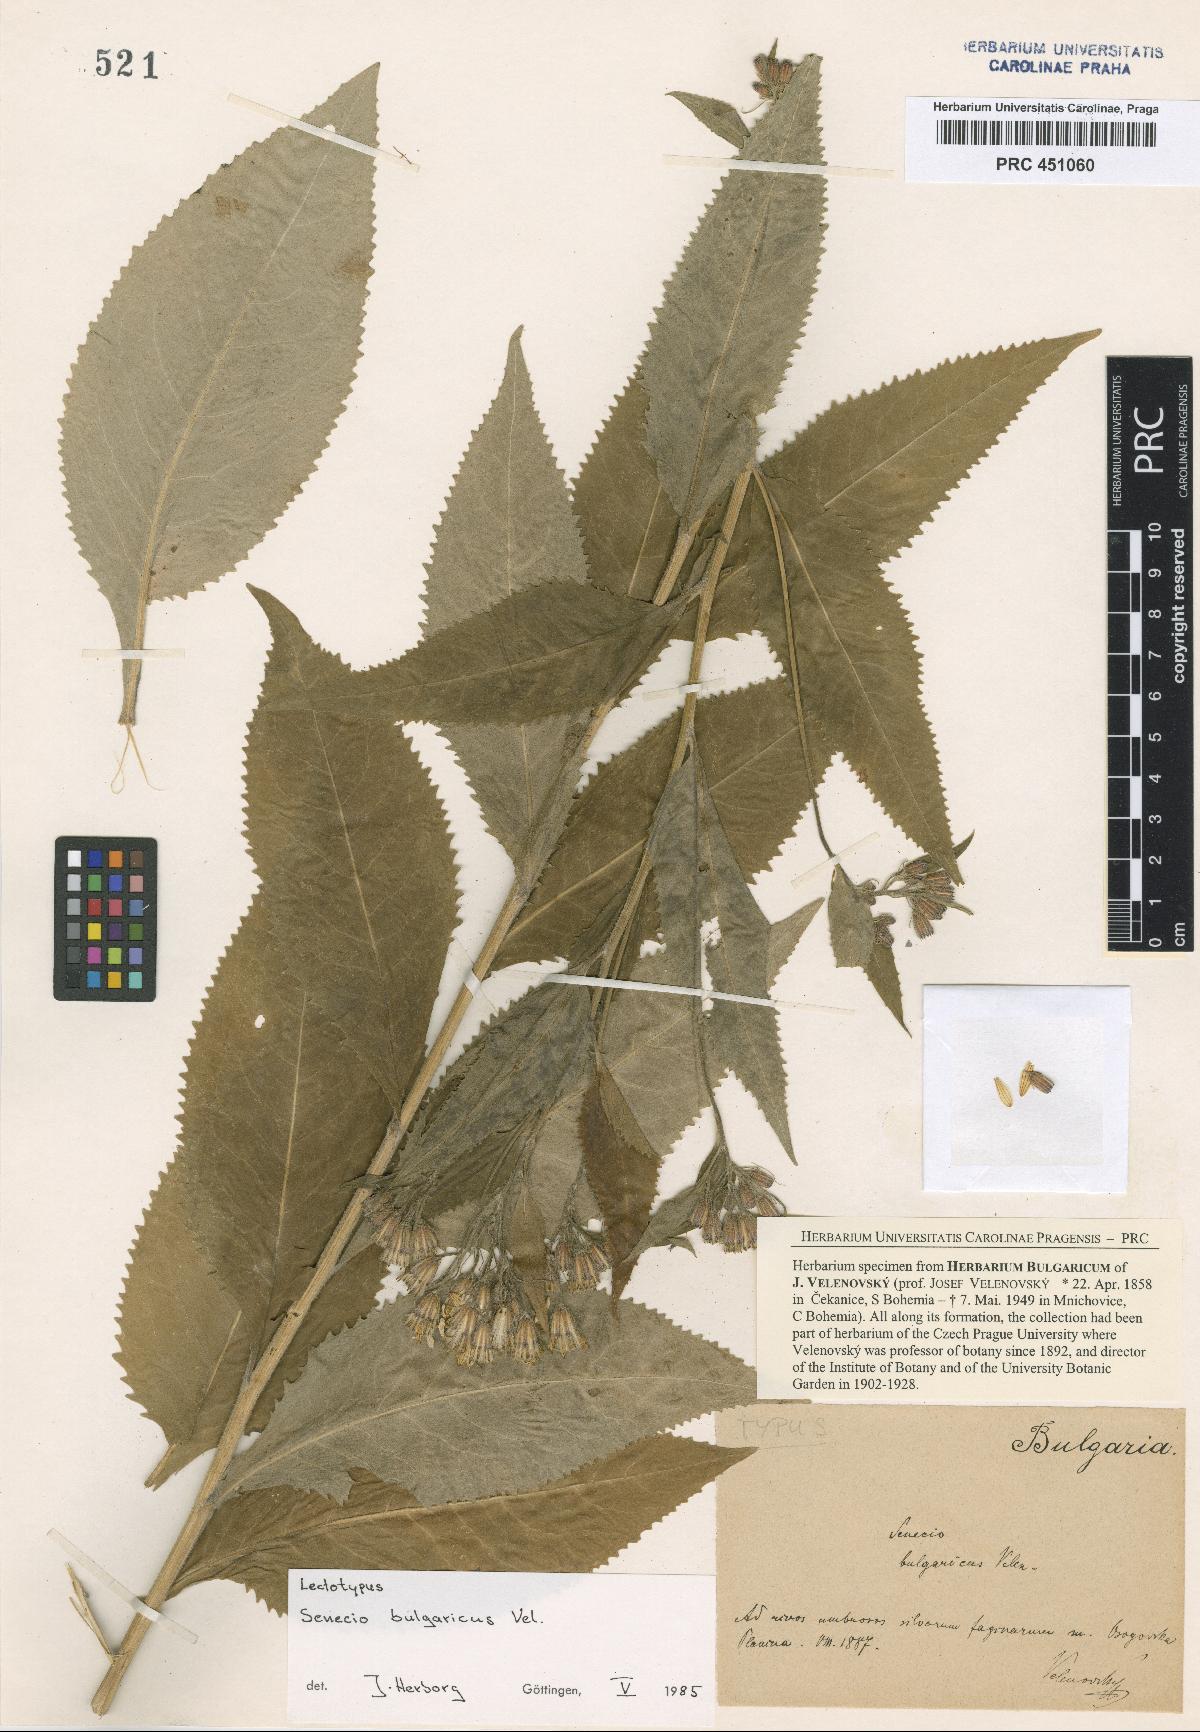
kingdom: Plantae
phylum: Tracheophyta
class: Magnoliopsida
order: Asterales
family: Asteraceae
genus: Senecio
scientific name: Senecio nemorensis
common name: Alpine ragwort
